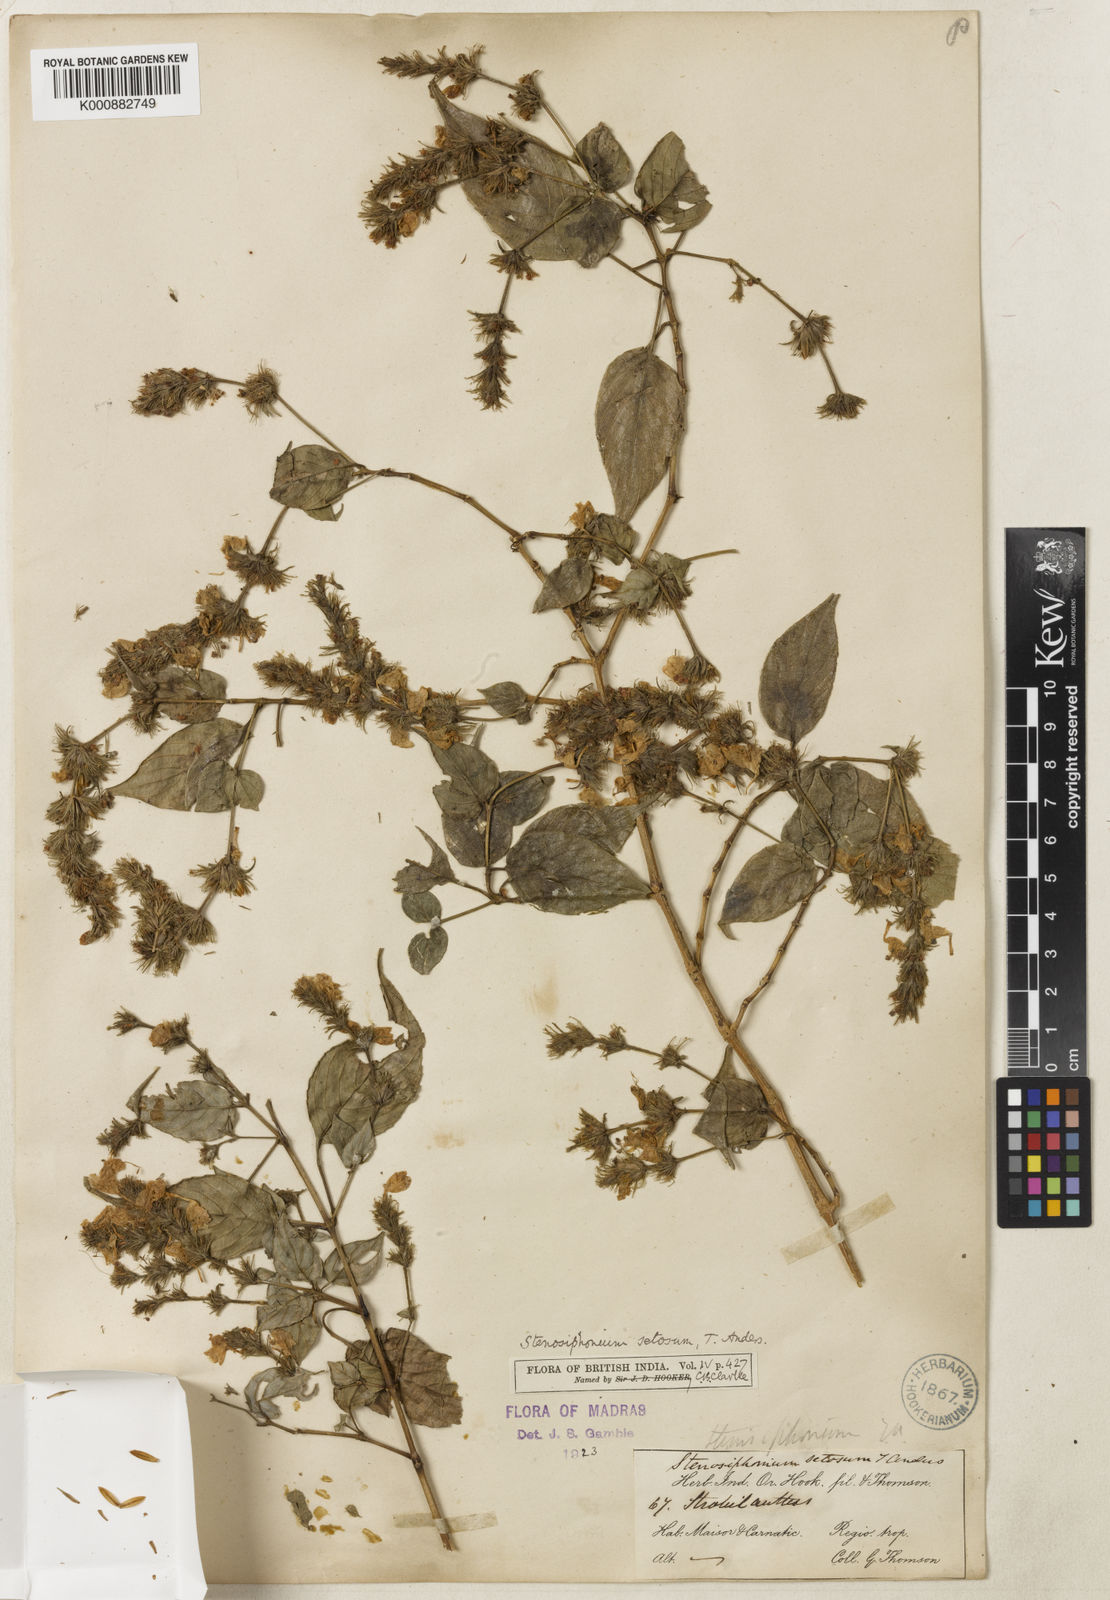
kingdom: Plantae
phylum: Tracheophyta
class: Magnoliopsida
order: Lamiales
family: Acanthaceae
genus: Strobilanthes
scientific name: Strobilanthes carinei
